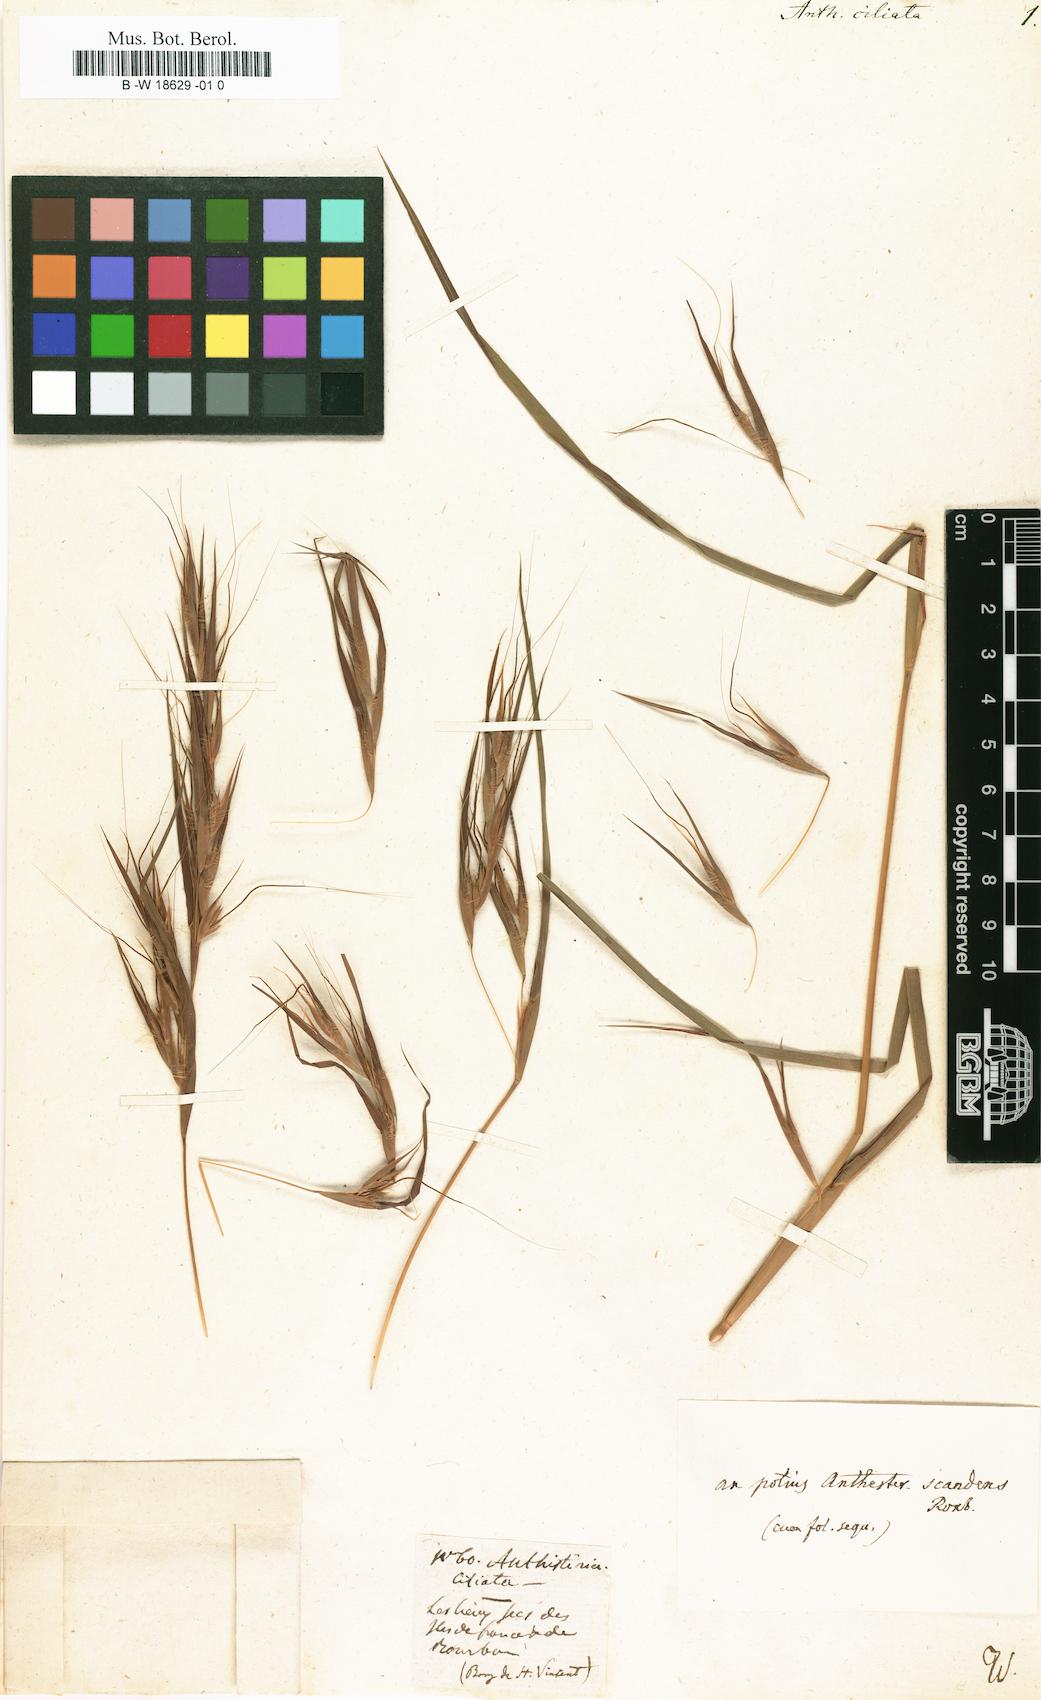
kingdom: Plantae
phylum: Tracheophyta
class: Liliopsida
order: Poales
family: Poaceae
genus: Themeda
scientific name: Themeda
